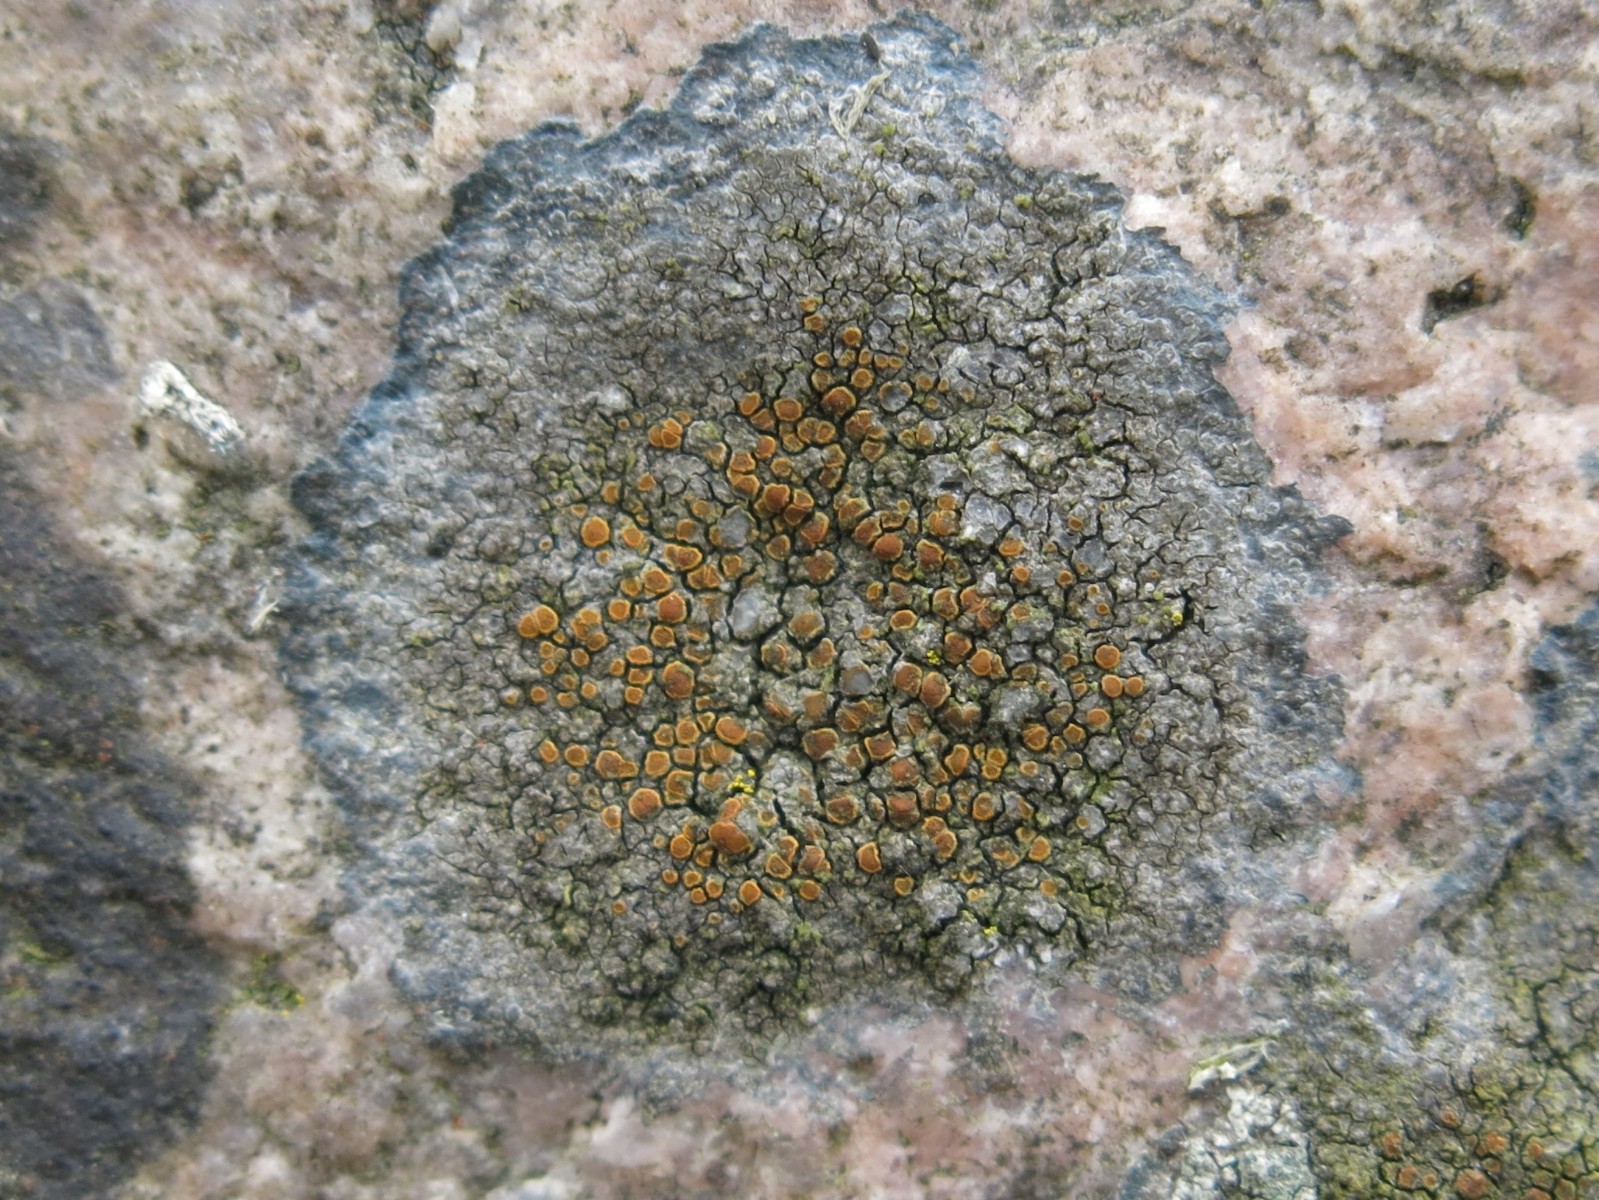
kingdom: Fungi
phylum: Ascomycota
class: Lecanoromycetes
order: Teloschistales
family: Teloschistaceae
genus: Blastenia
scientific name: Blastenia crenularia
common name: pyntelig orangelav
